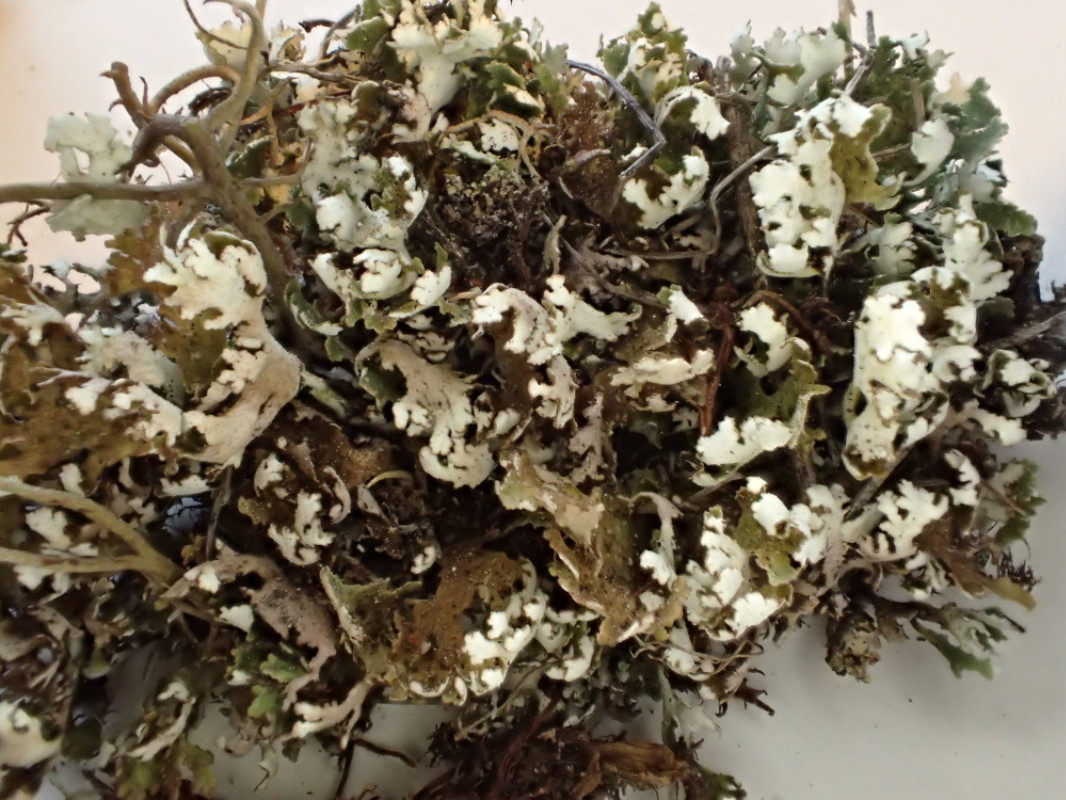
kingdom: Fungi
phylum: Ascomycota
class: Lecanoromycetes
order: Lecanorales
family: Cladoniaceae
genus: Cladonia
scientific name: Cladonia foliacea
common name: fliget bægerlav
